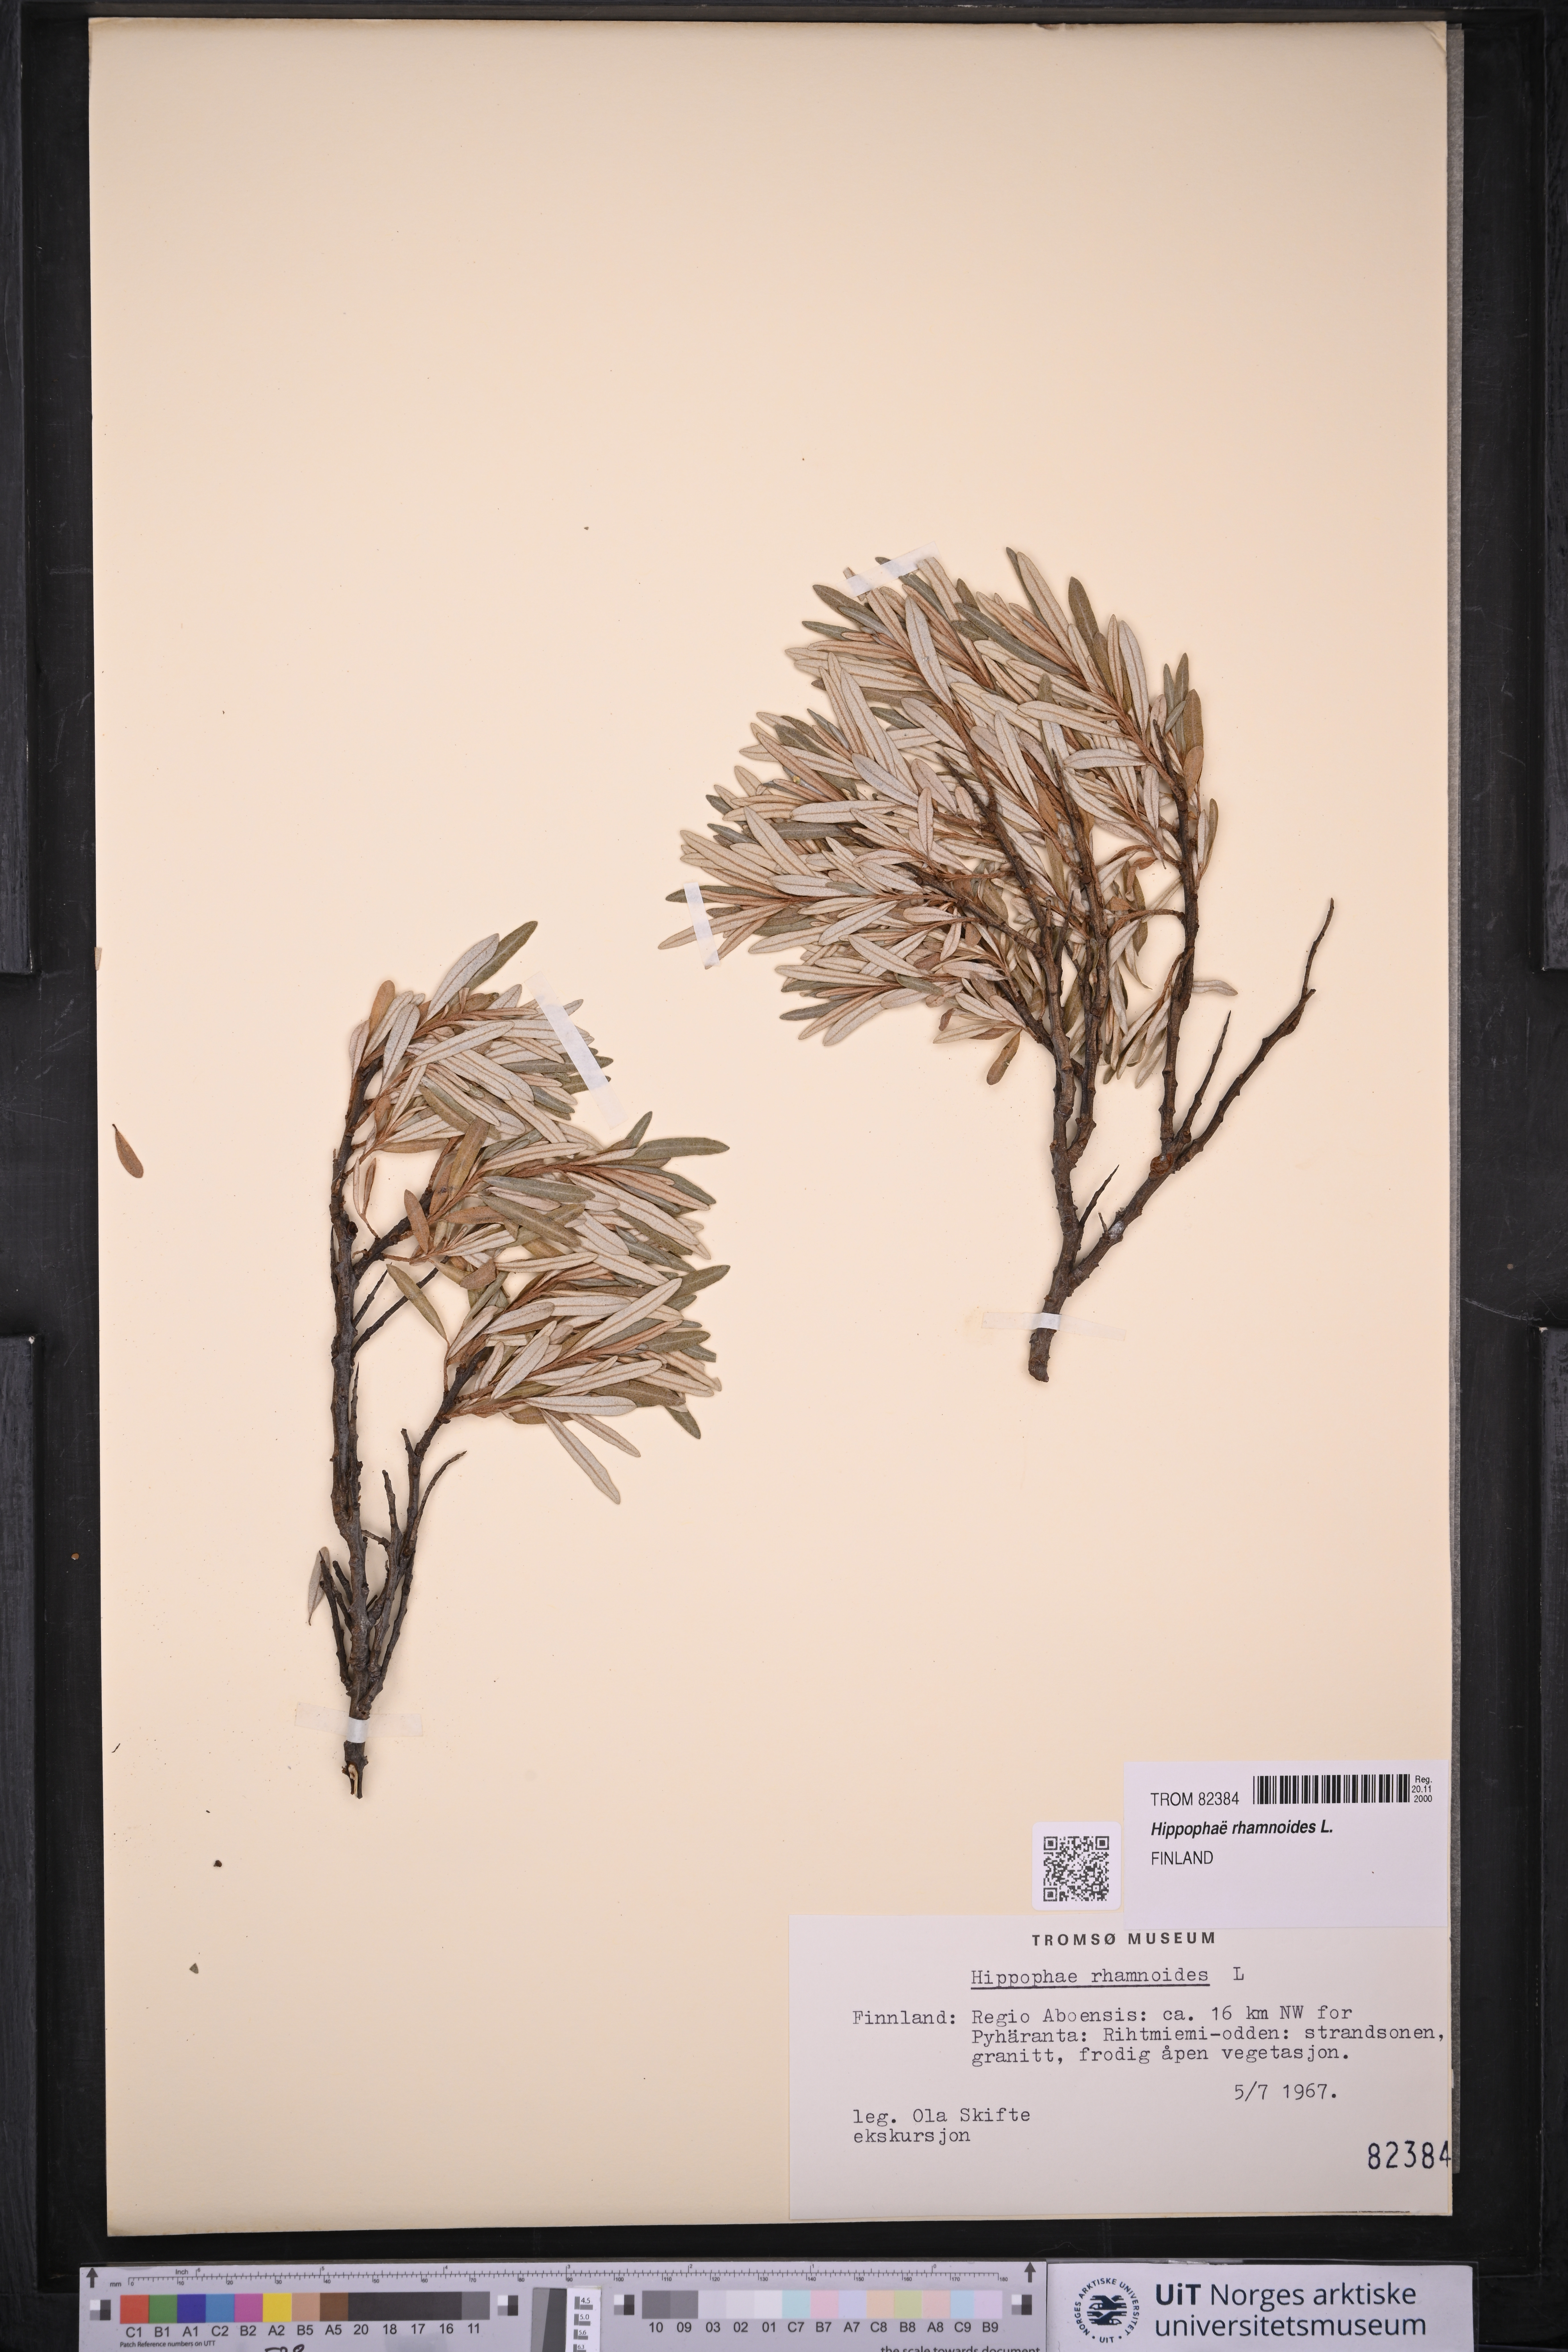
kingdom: Plantae
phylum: Tracheophyta
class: Magnoliopsida
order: Rosales
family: Elaeagnaceae
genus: Hippophae
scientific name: Hippophae rhamnoides
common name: Sea-buckthorn
